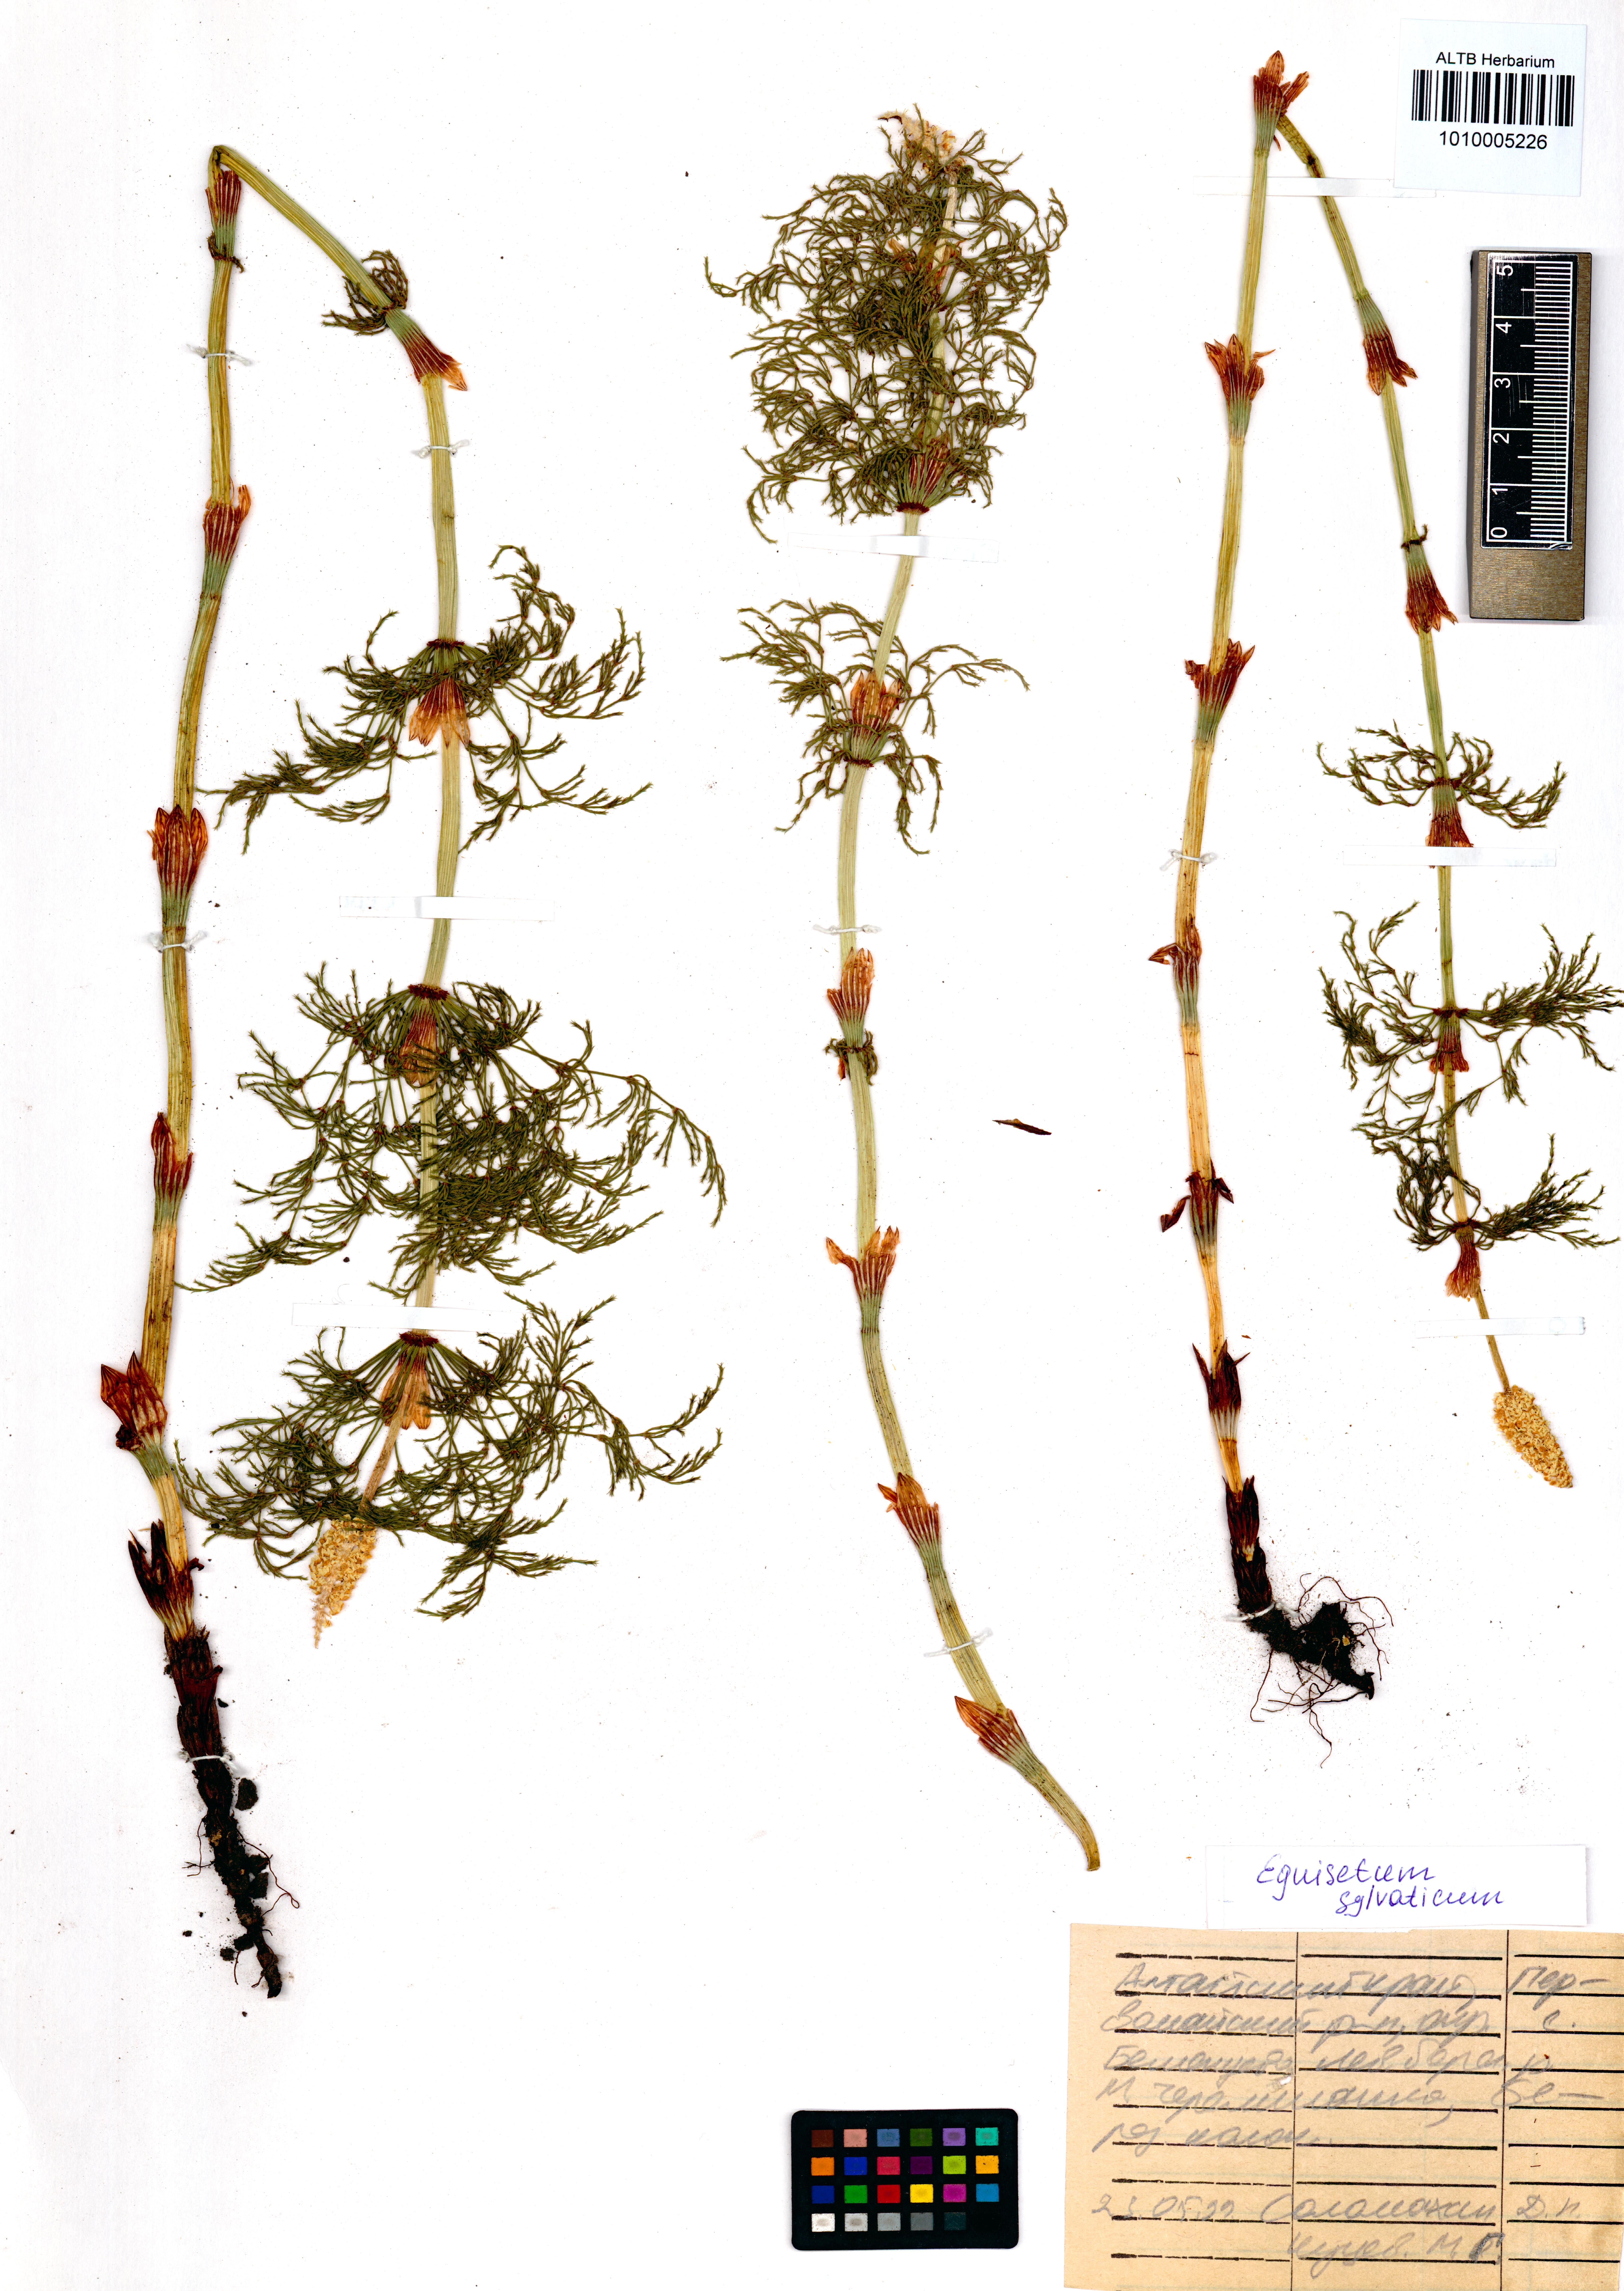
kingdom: Plantae
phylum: Tracheophyta
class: Polypodiopsida
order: Equisetales
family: Equisetaceae
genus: Equisetum
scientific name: Equisetum sylvaticum
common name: Wood horsetail
